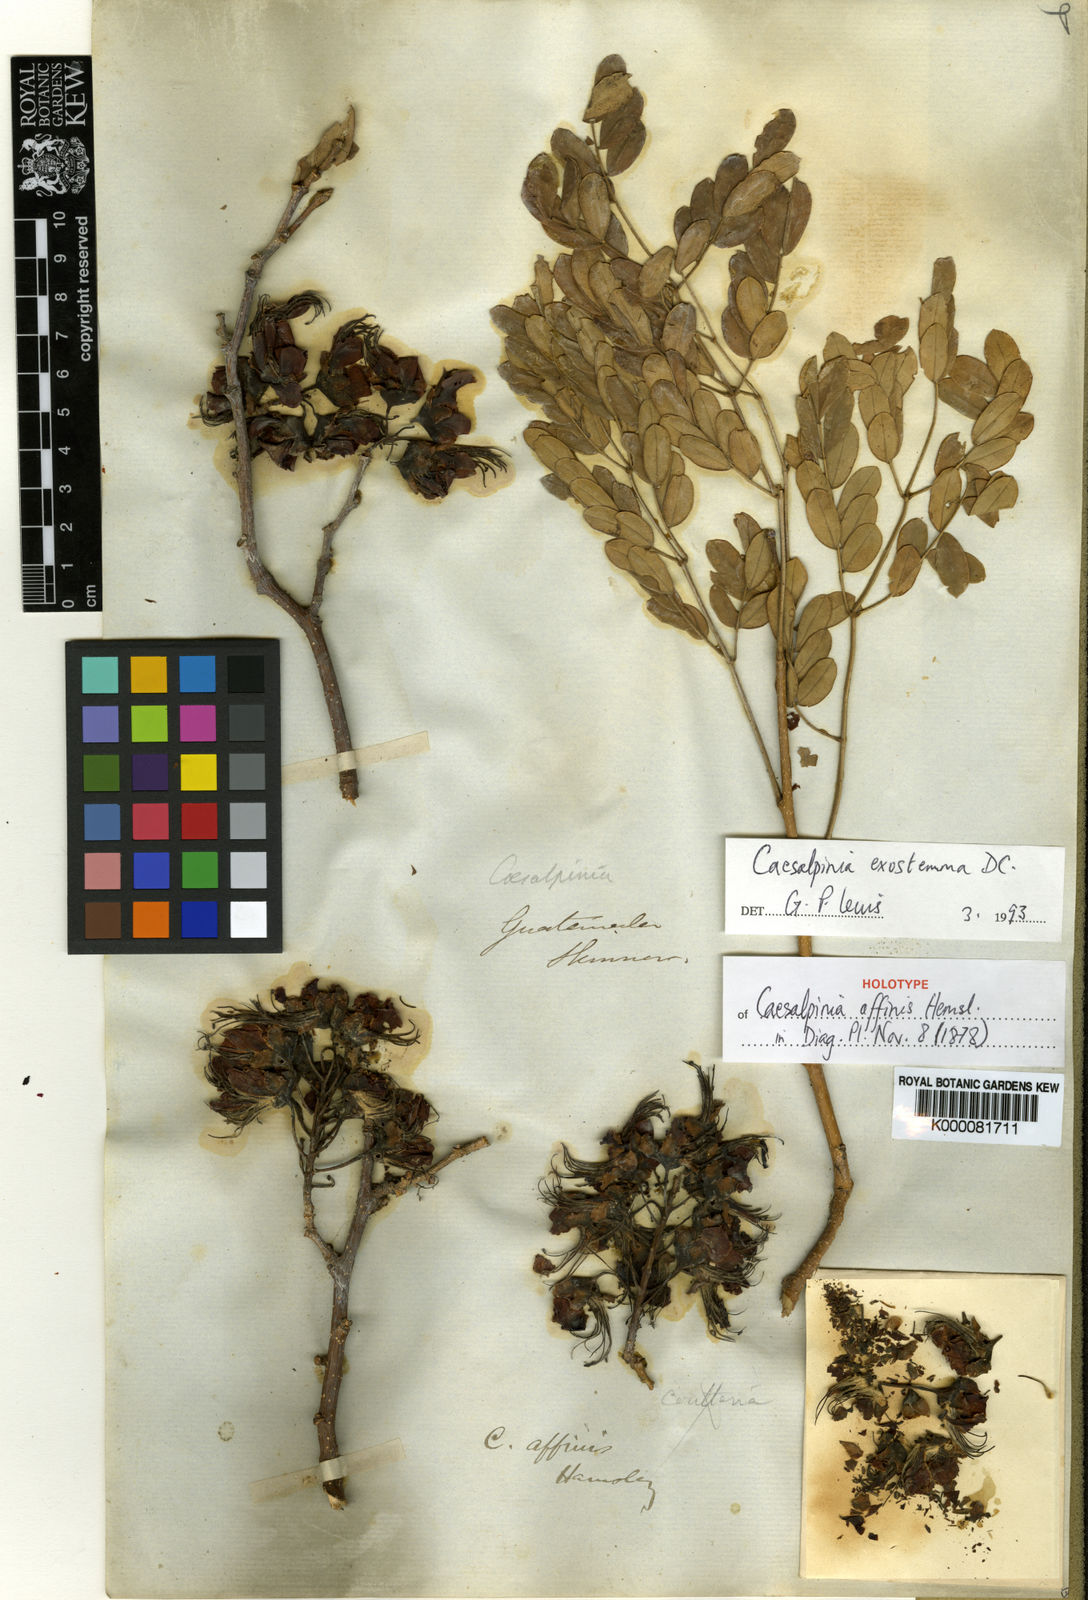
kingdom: Plantae
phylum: Tracheophyta
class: Magnoliopsida
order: Fabales
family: Fabaceae
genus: Erythrostemon
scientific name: Erythrostemon exostemma
